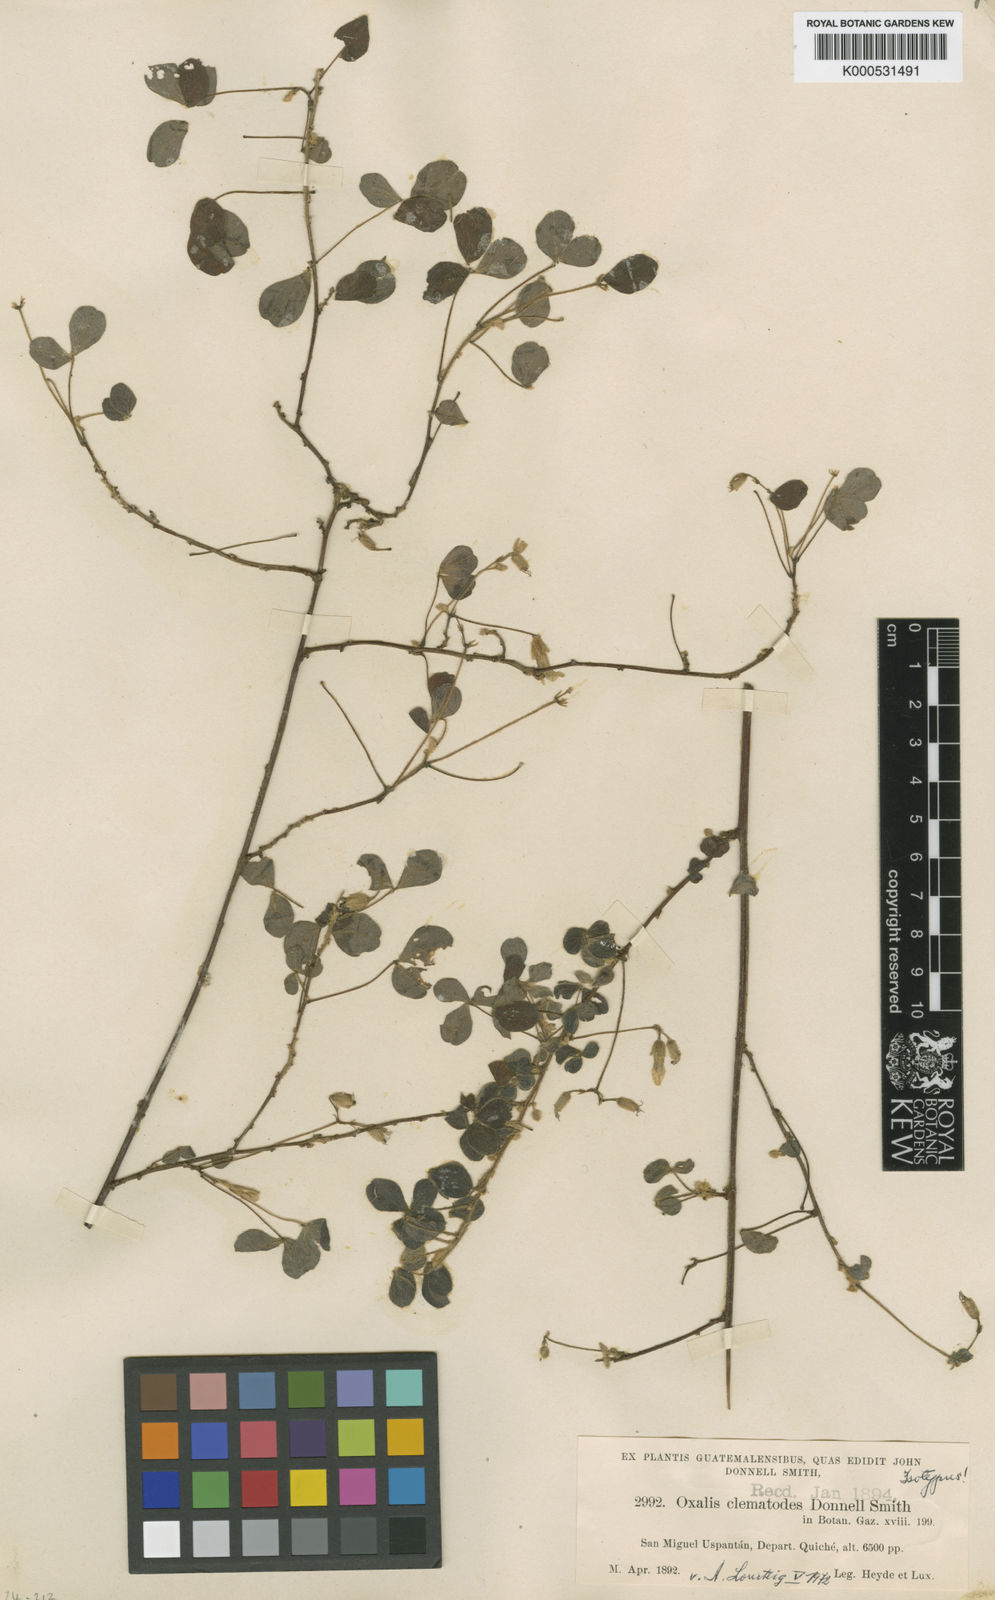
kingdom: Plantae
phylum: Tracheophyta
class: Magnoliopsida
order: Oxalidales
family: Oxalidaceae
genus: Oxalis
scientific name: Oxalis clematodes
